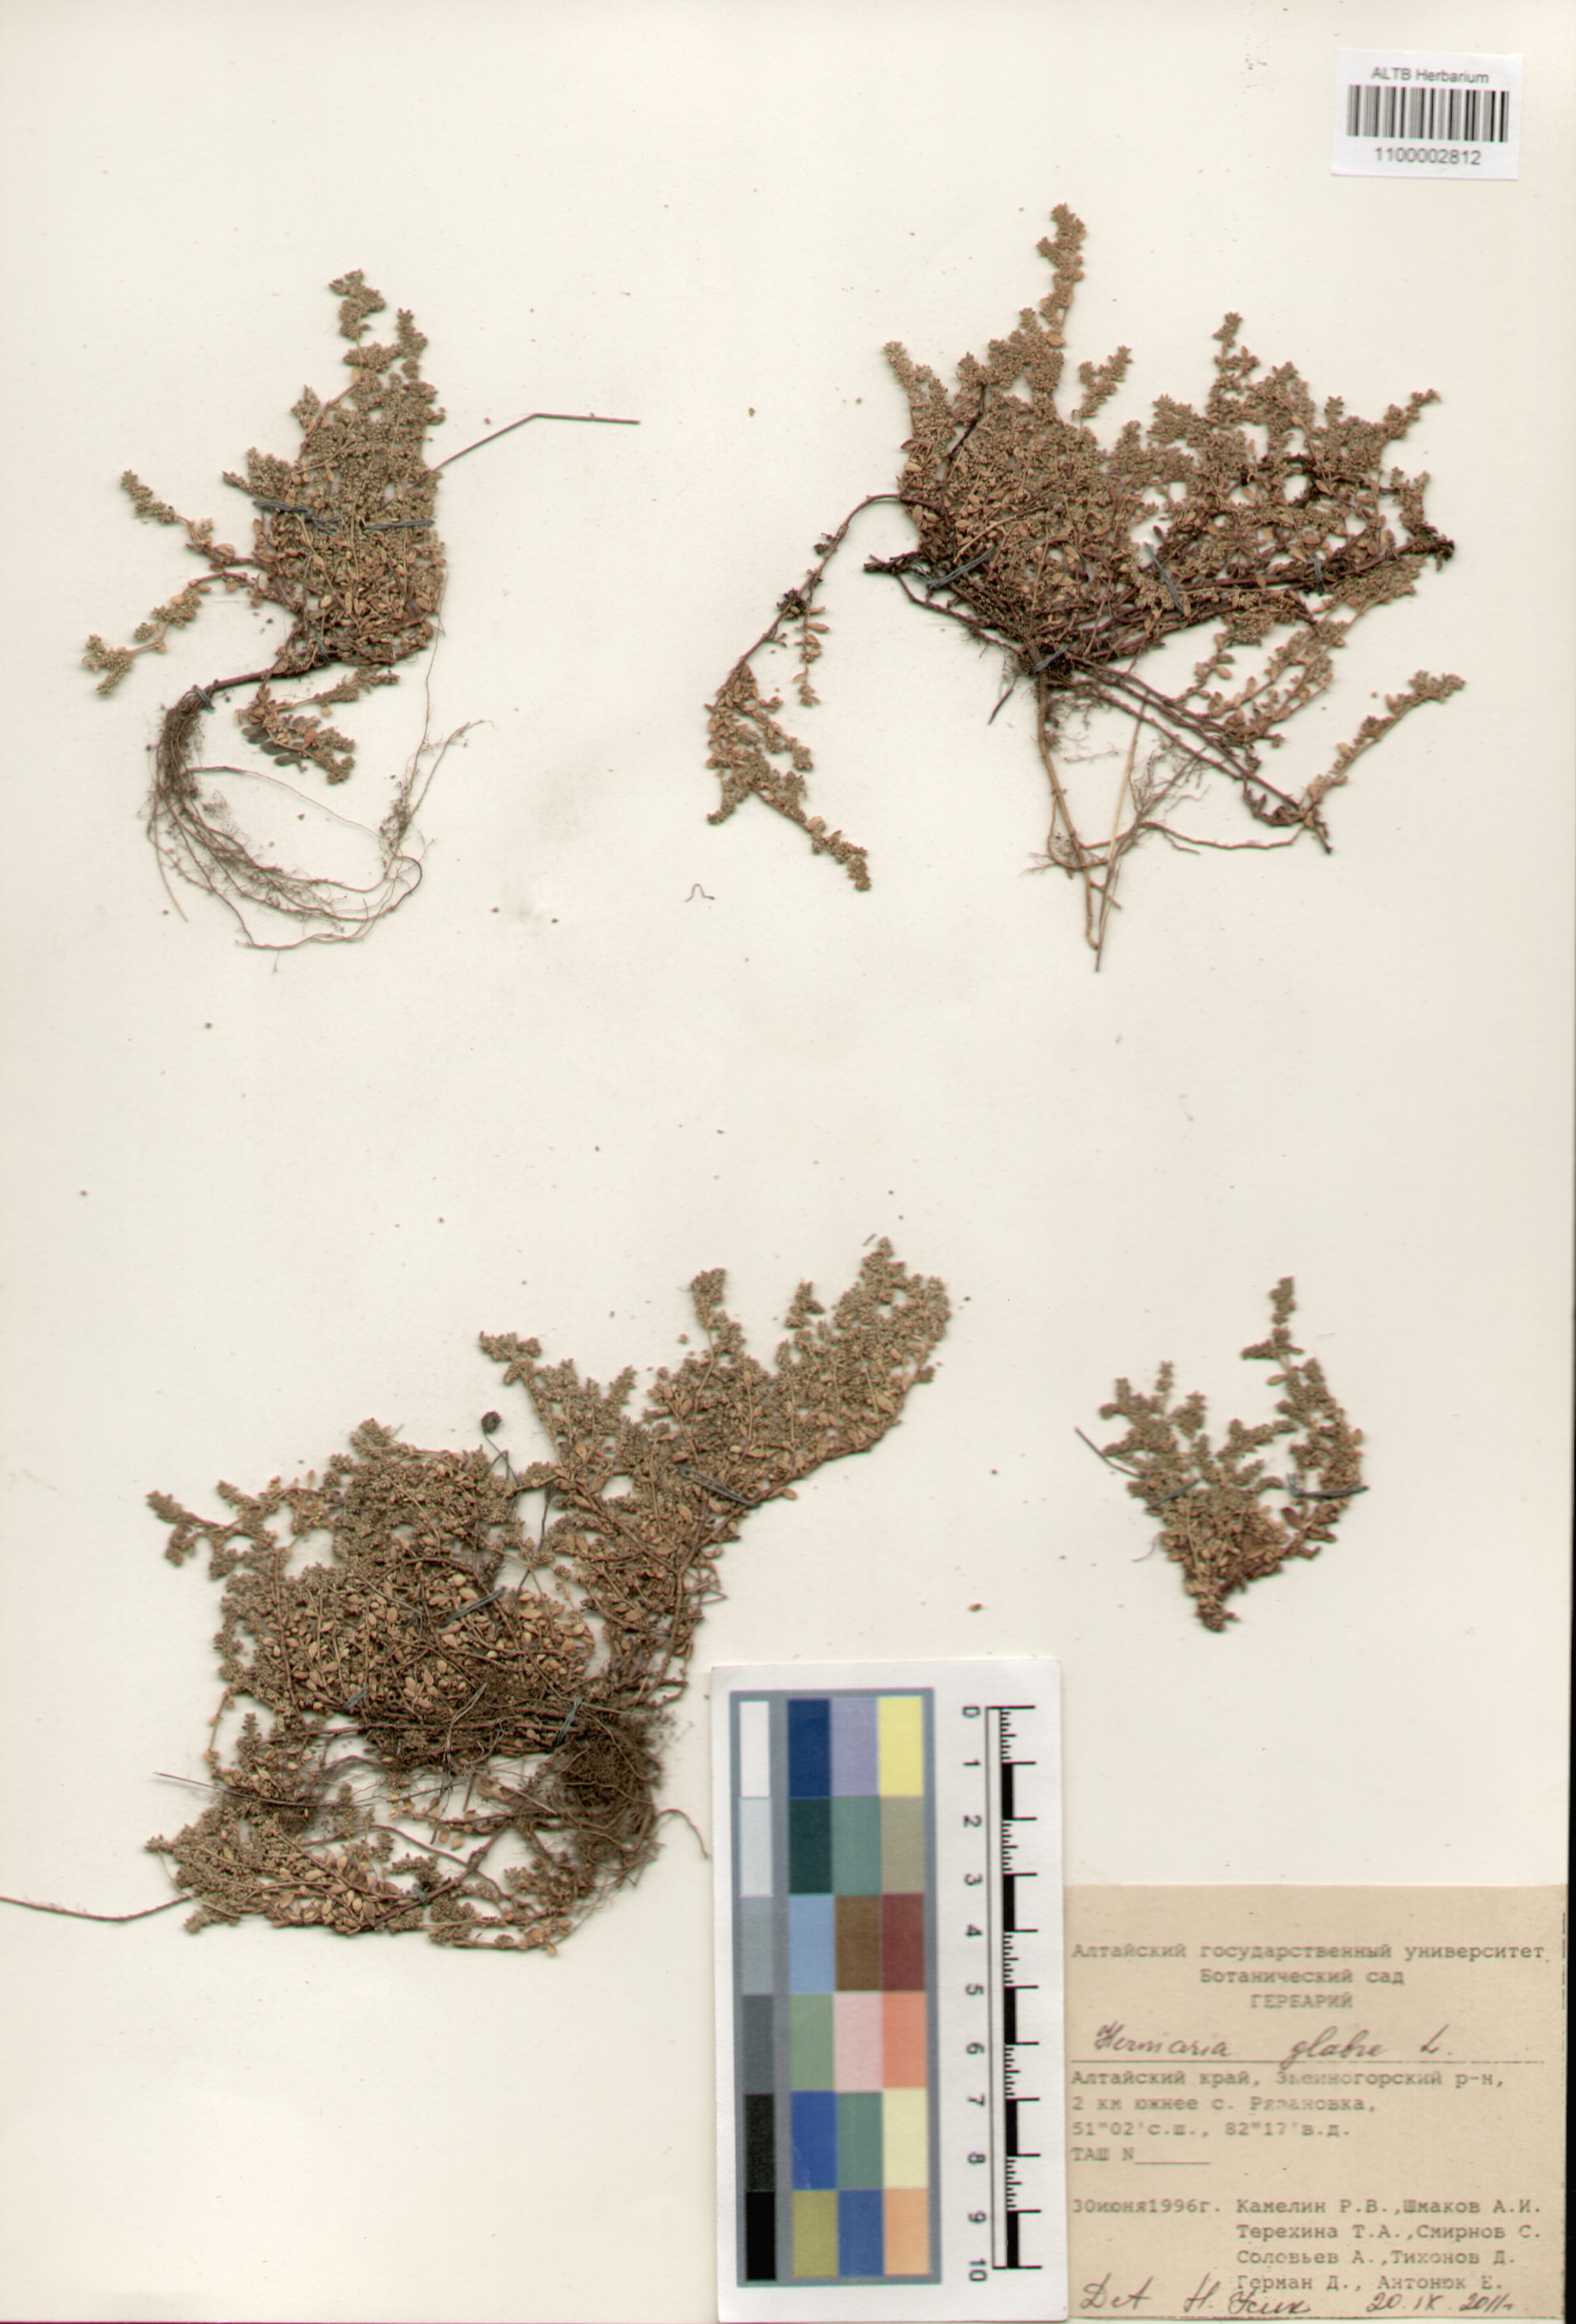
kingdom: Plantae
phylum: Tracheophyta
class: Magnoliopsida
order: Caryophyllales
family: Caryophyllaceae
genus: Herniaria
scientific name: Herniaria glabra
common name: Smooth rupturewort
